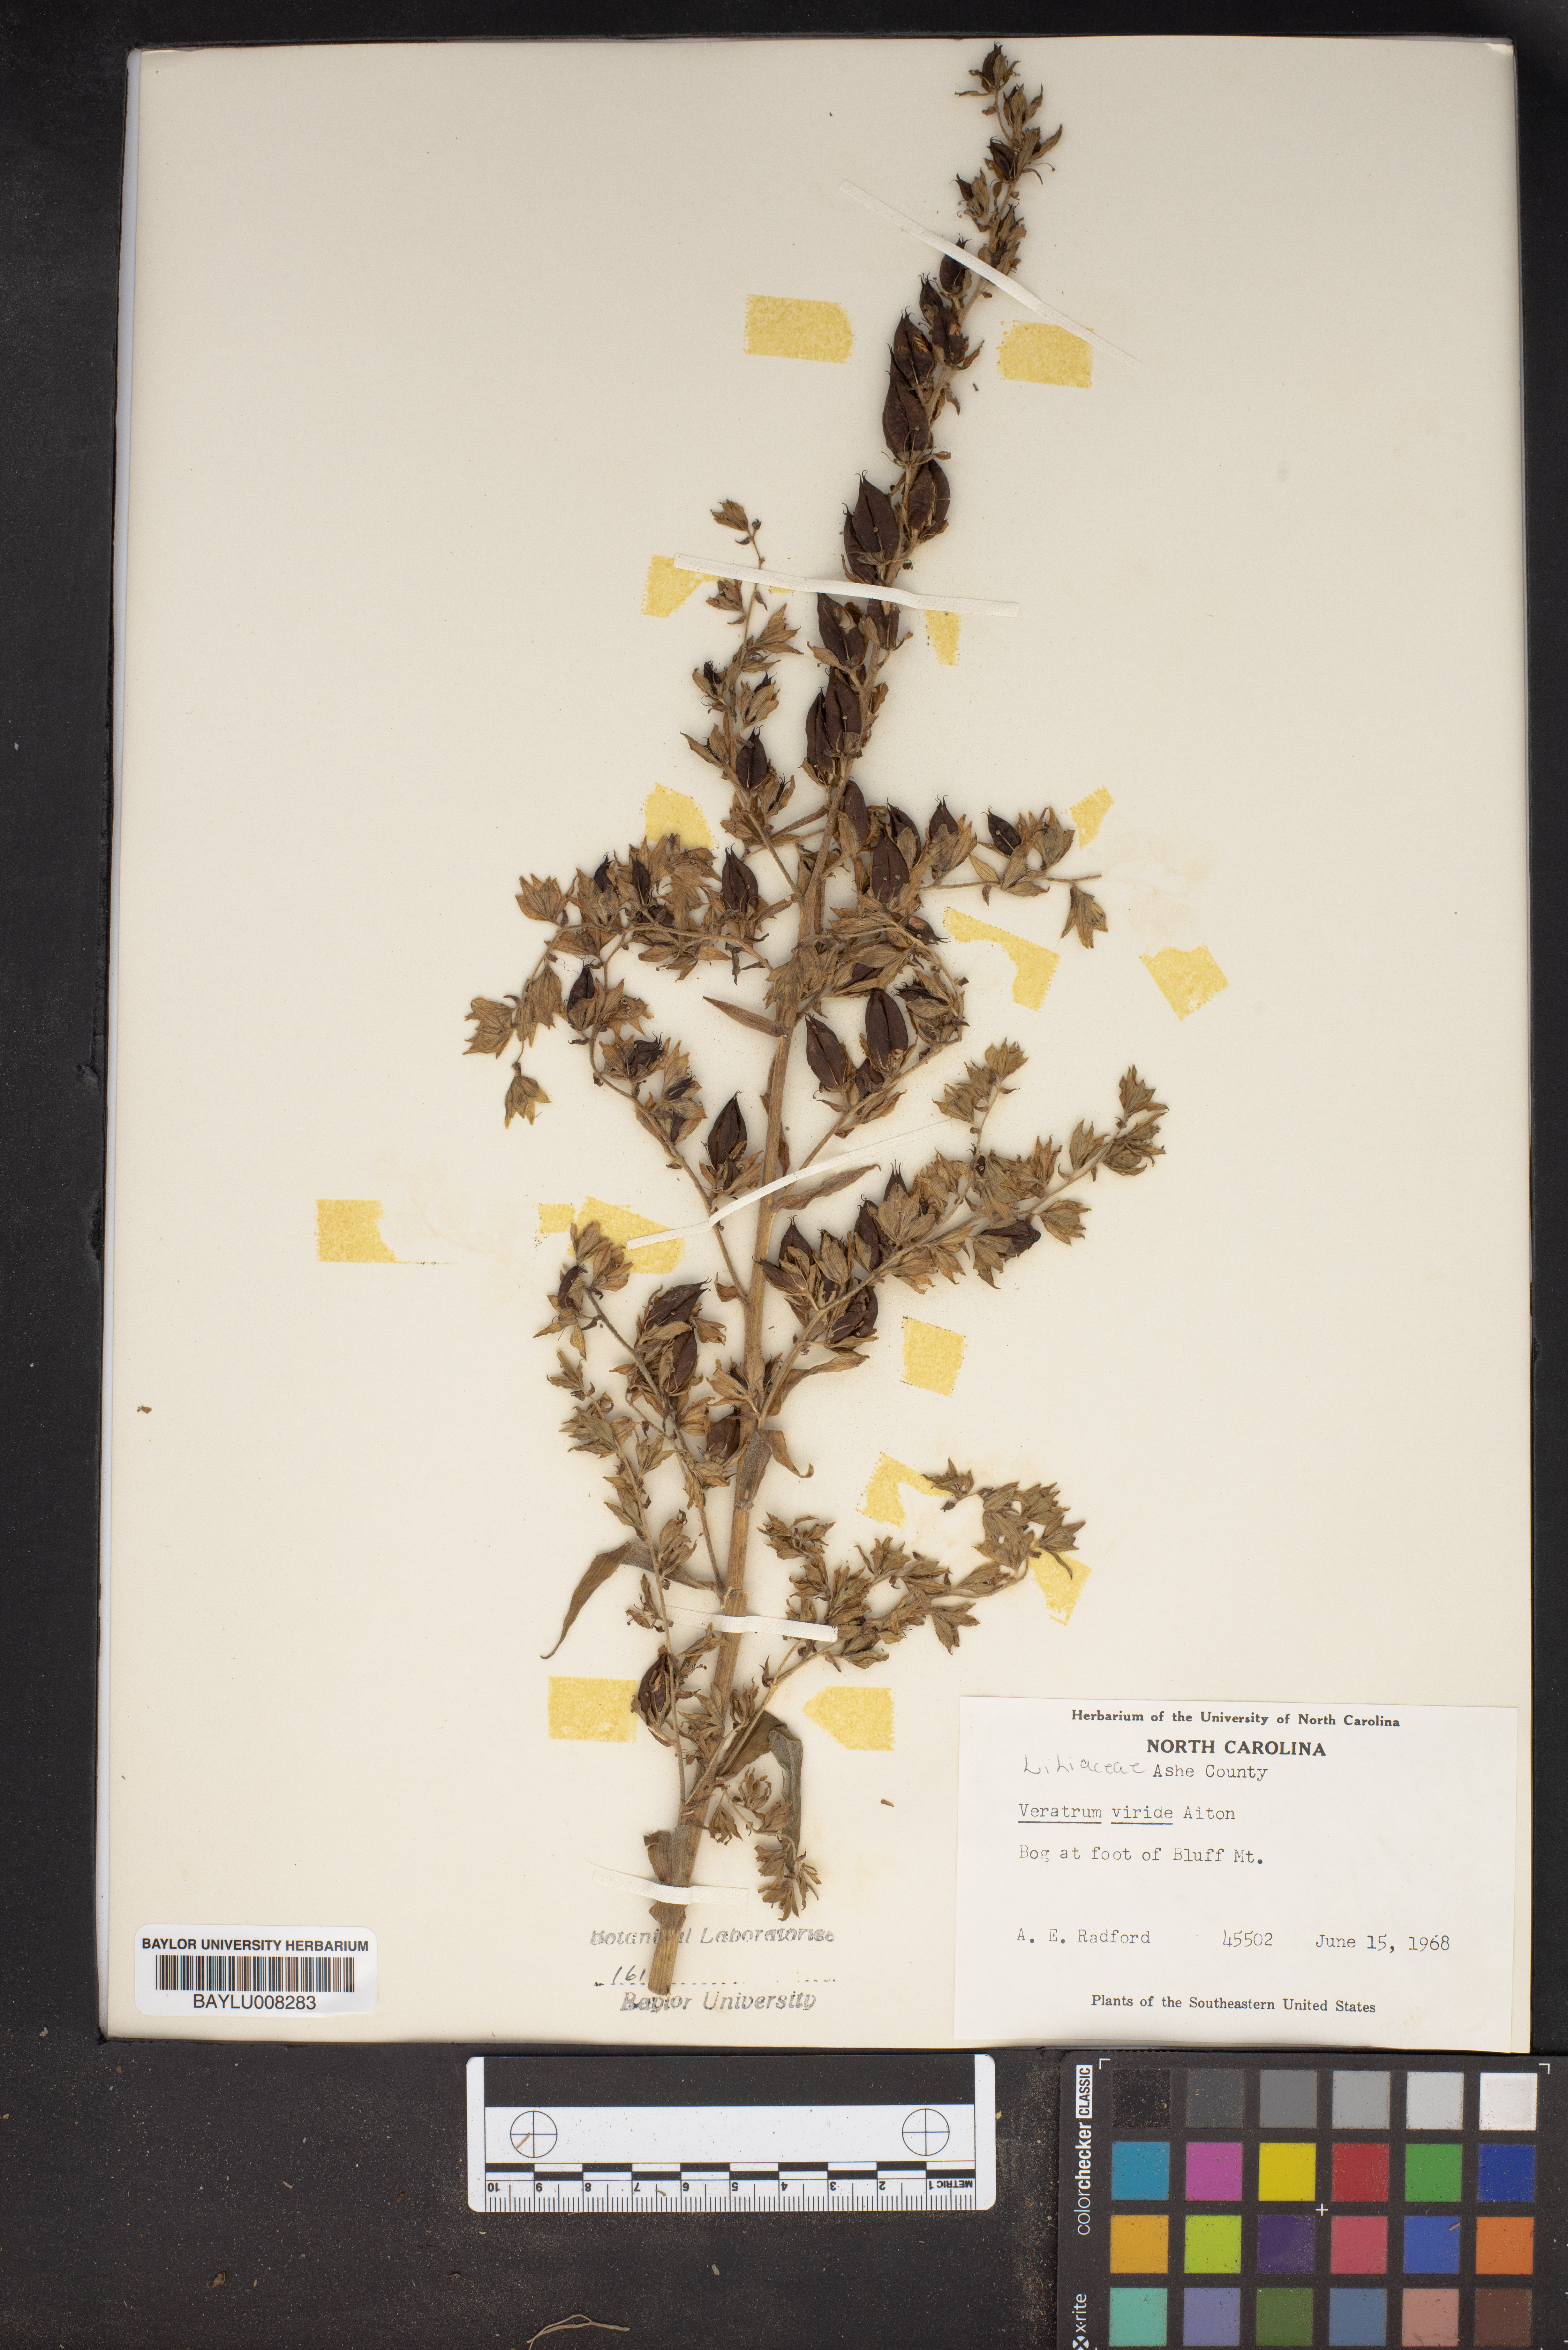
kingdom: Plantae
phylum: Tracheophyta
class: Liliopsida
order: Liliales
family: Melanthiaceae
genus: Veratrum
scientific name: Veratrum viride
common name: American false hellebore
